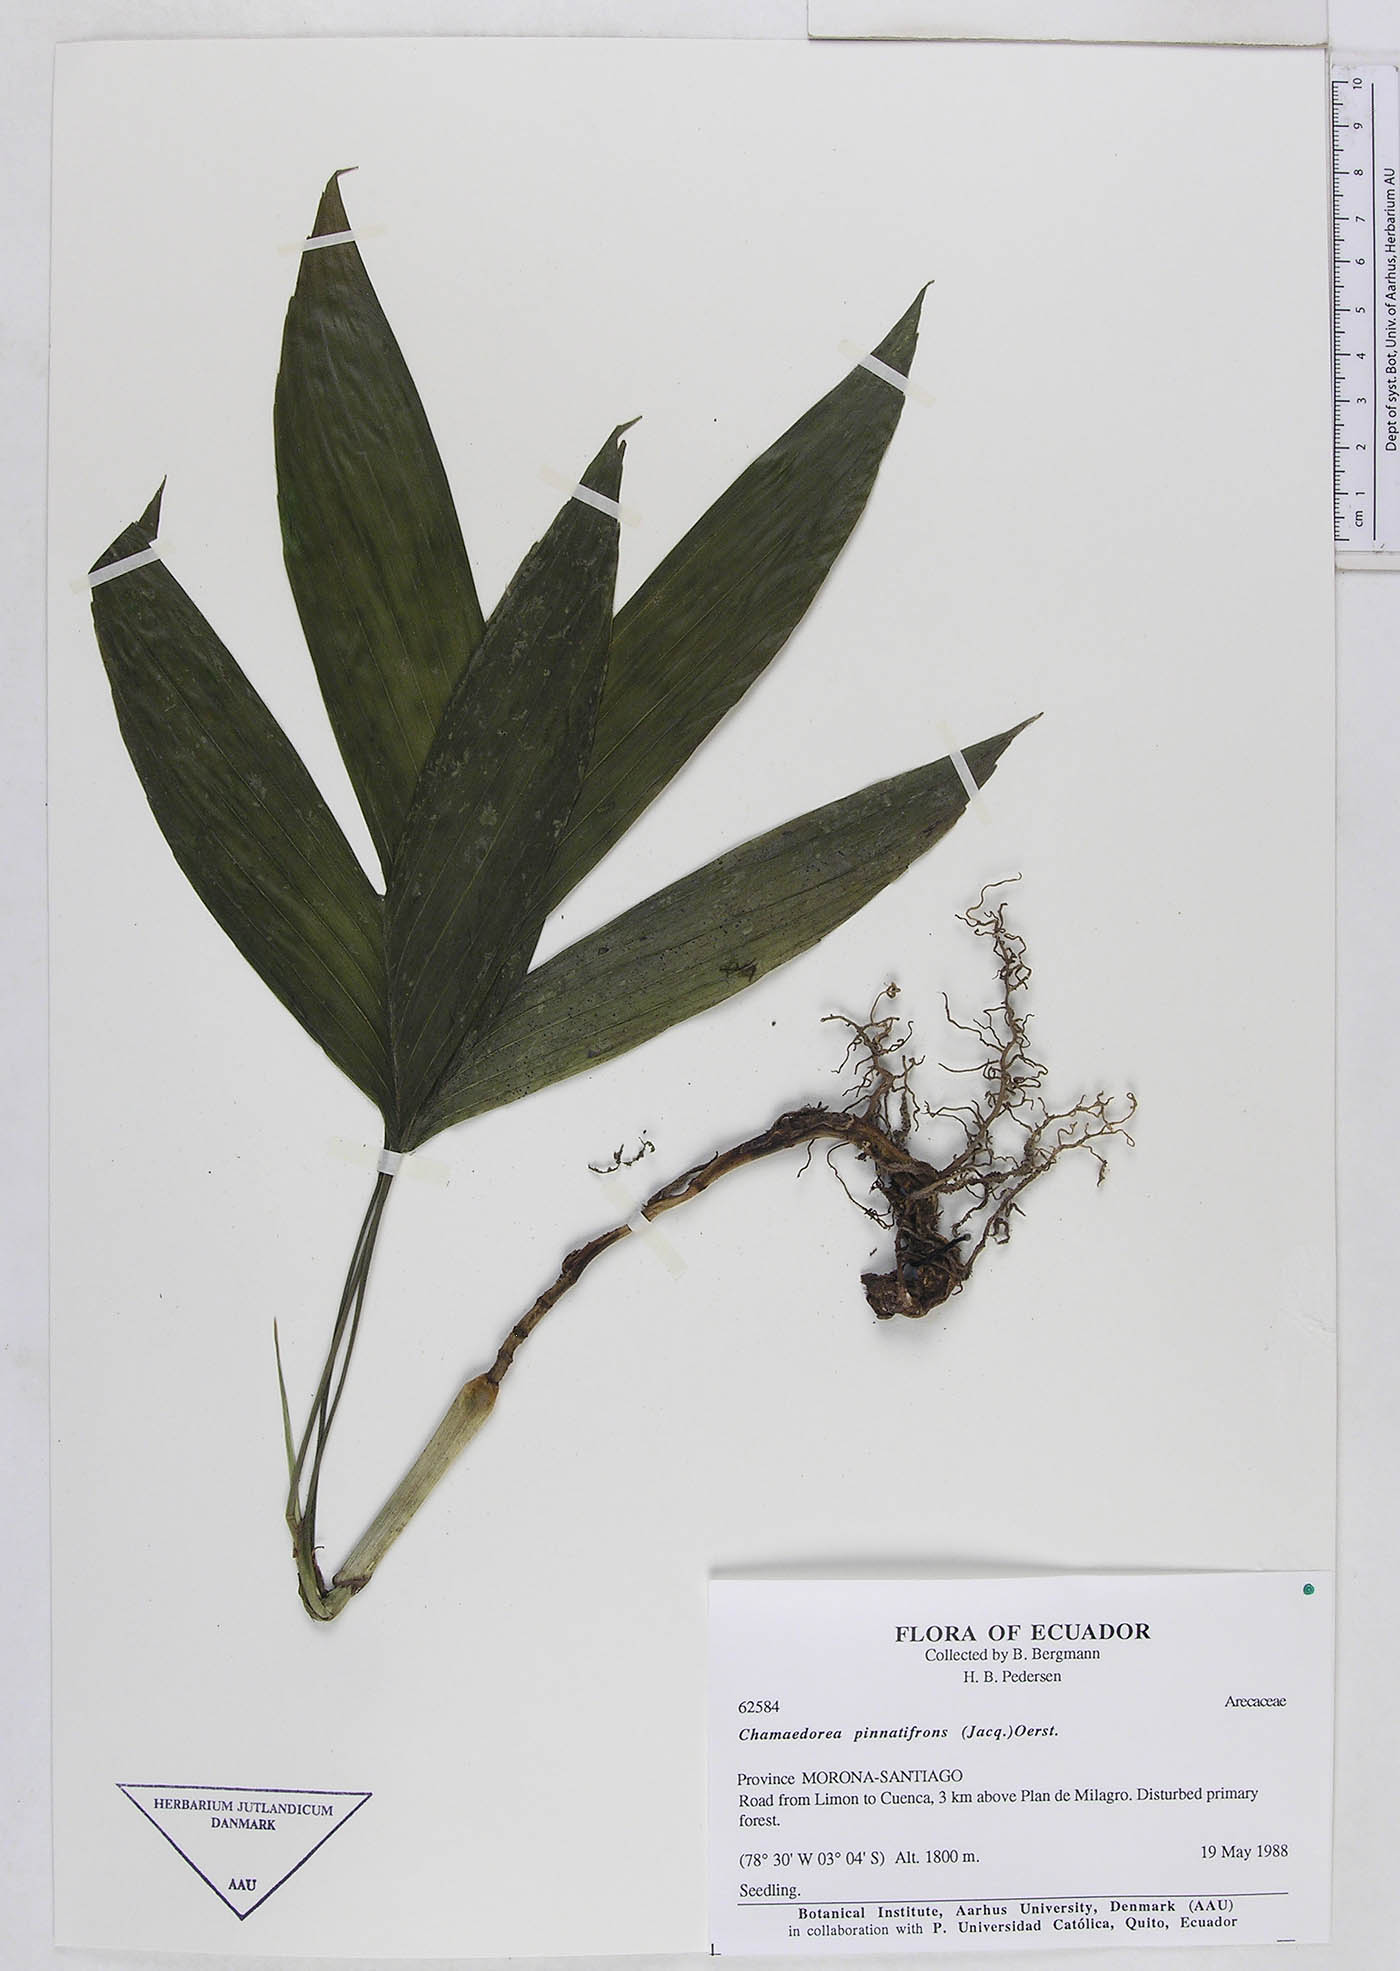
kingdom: Plantae
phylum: Tracheophyta
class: Liliopsida
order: Arecales
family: Arecaceae
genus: Chamaedorea
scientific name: Chamaedorea pinnatifrons
